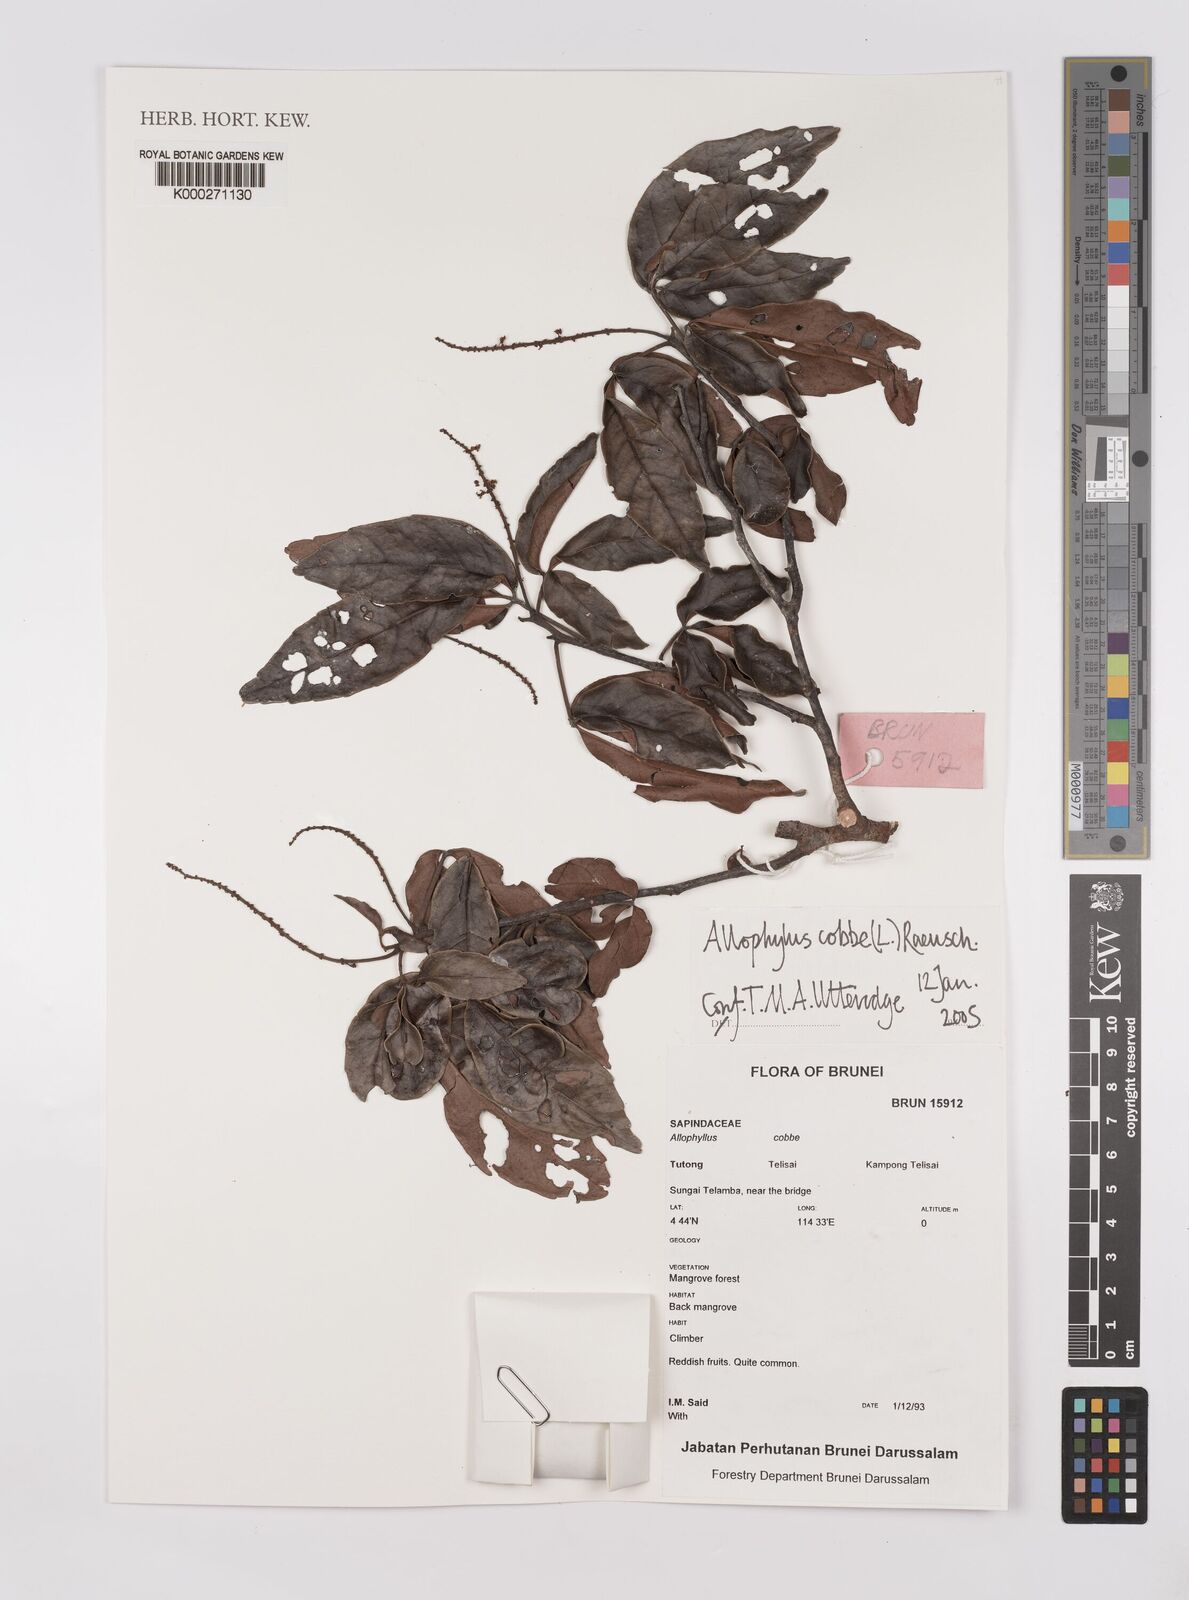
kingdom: Plantae
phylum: Tracheophyta
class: Magnoliopsida
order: Sapindales
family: Sapindaceae
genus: Allophylus
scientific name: Allophylus
